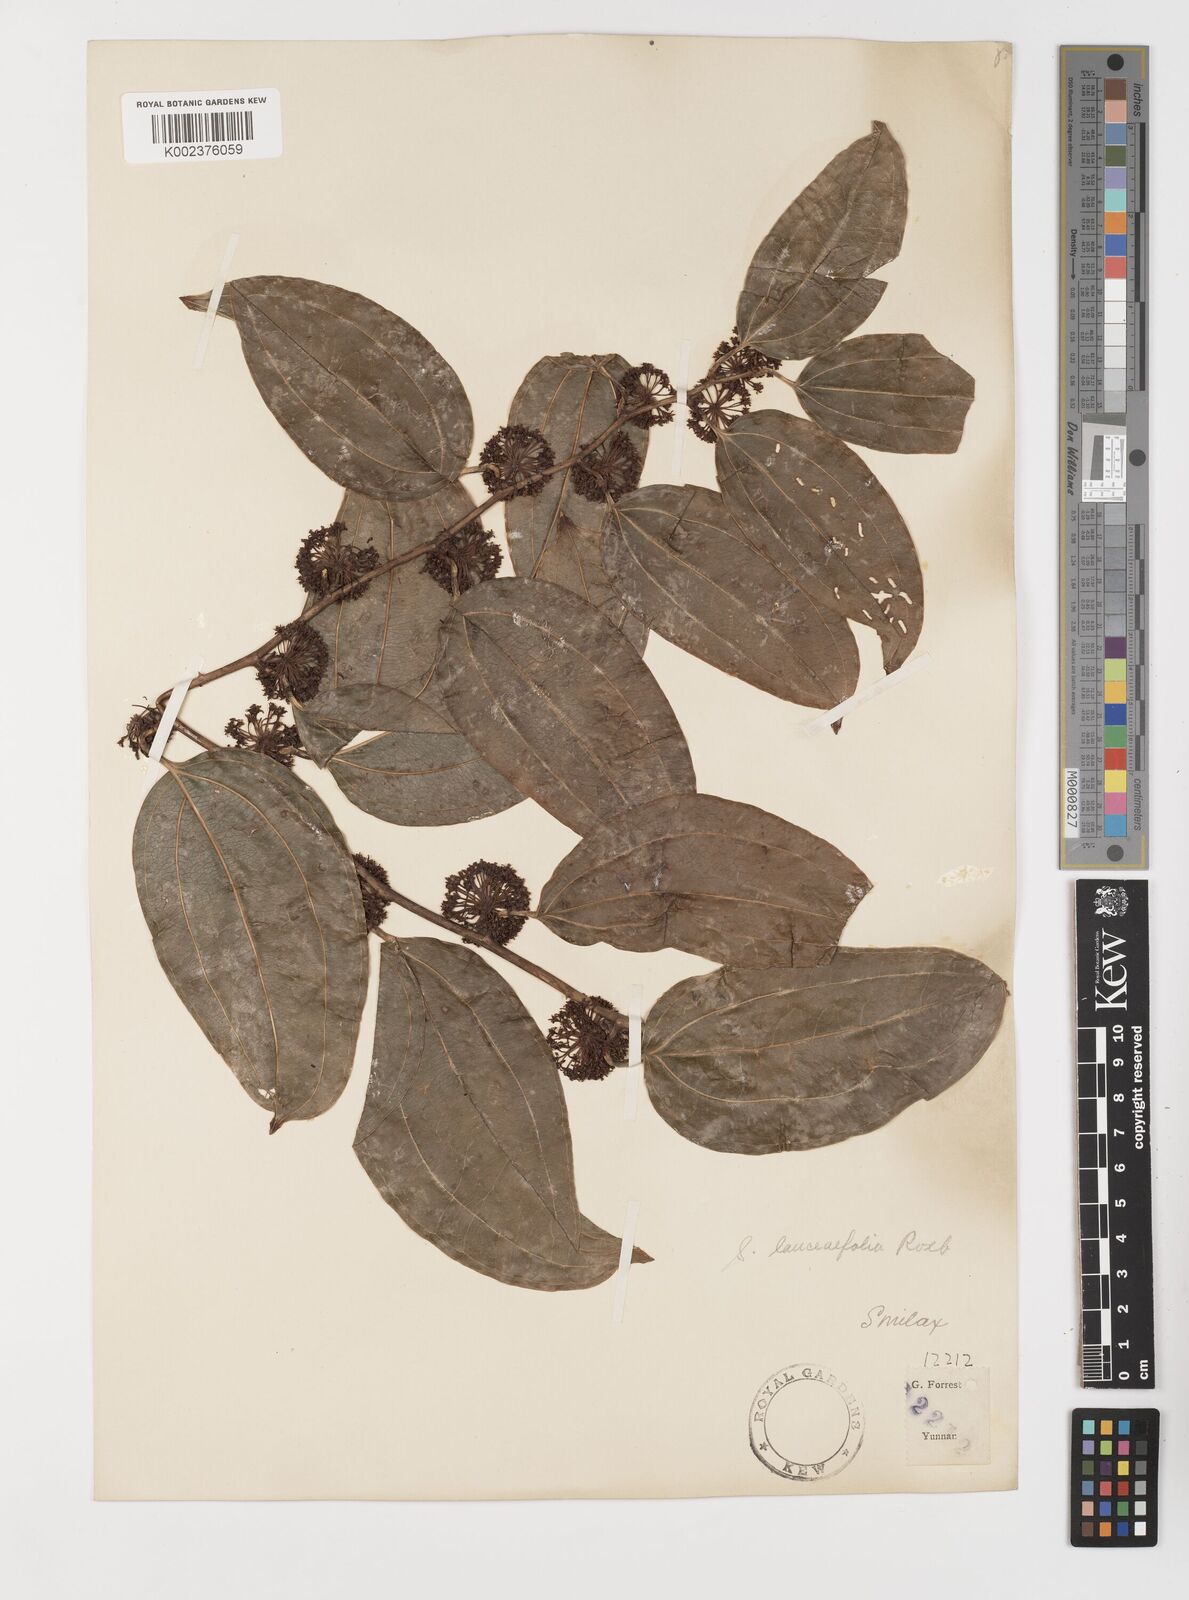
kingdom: Plantae
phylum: Tracheophyta
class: Liliopsida
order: Liliales
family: Smilacaceae
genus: Smilax
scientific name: Smilax lanceifolia
